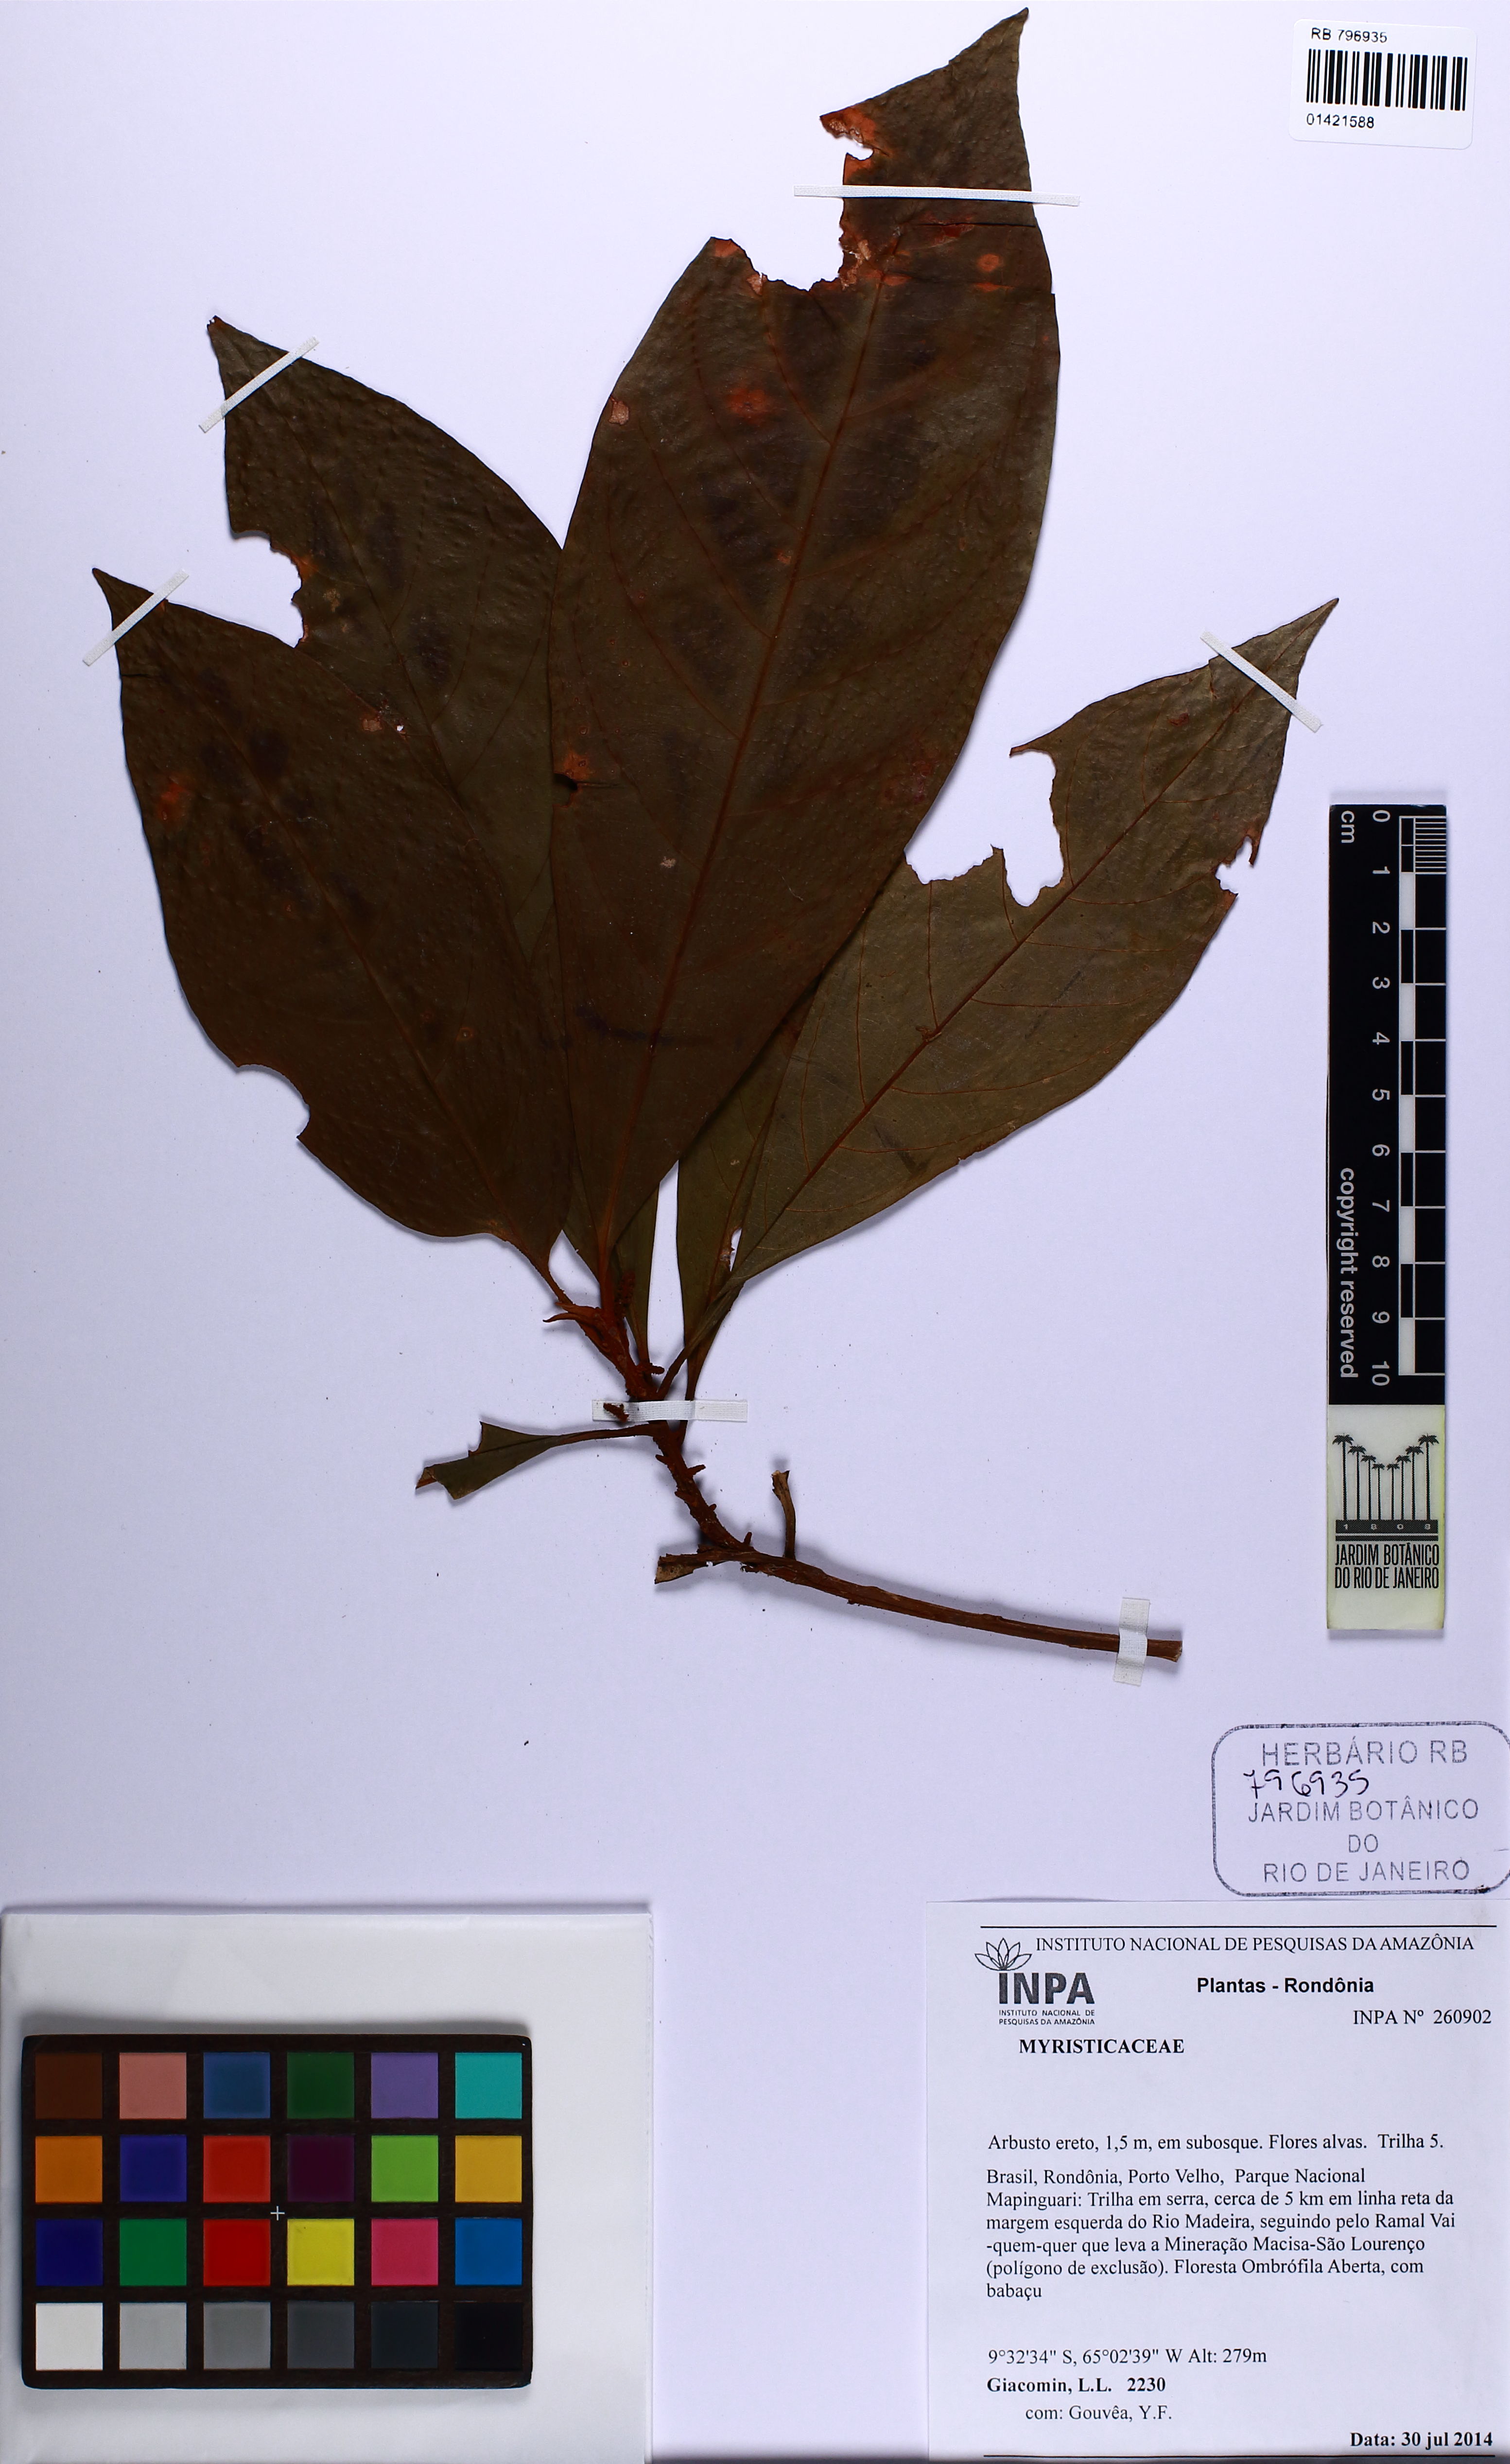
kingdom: Plantae
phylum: Tracheophyta
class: Magnoliopsida
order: Magnoliales
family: Myristicaceae
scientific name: Myristicaceae
